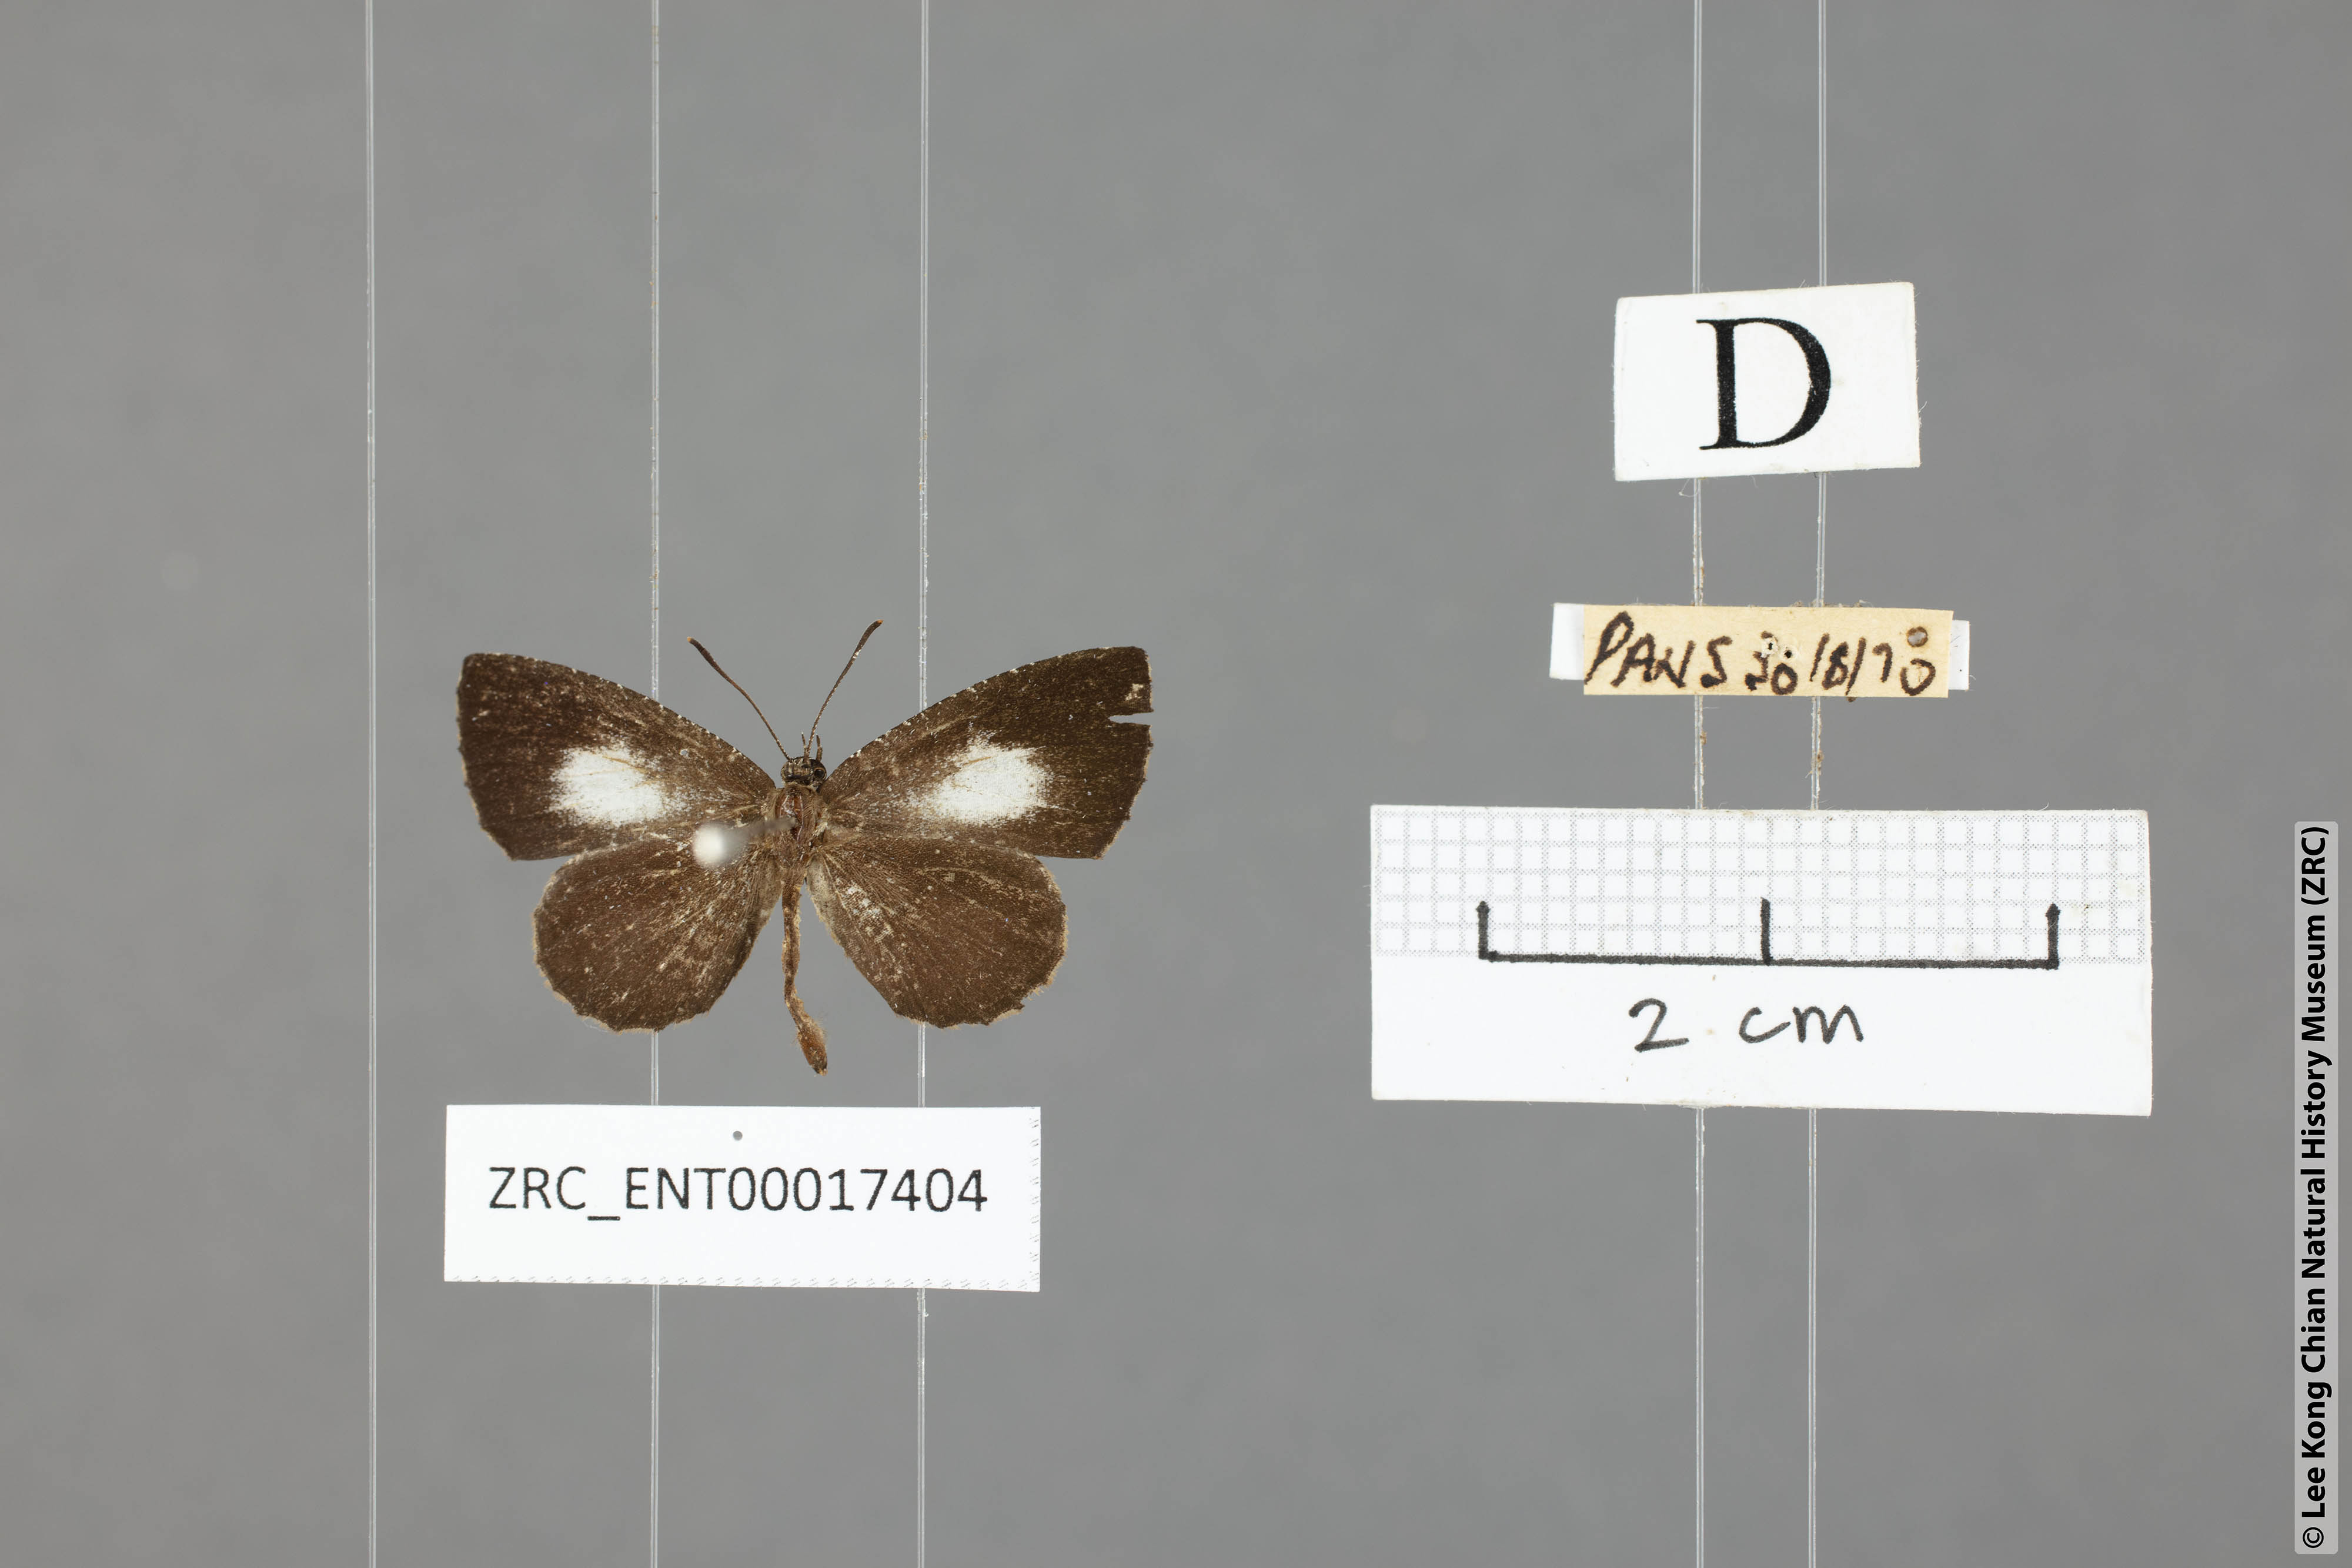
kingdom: Animalia
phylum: Arthropoda
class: Insecta
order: Lepidoptera
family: Lycaenidae
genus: Logania
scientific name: Logania distanti
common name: Dark mottle
